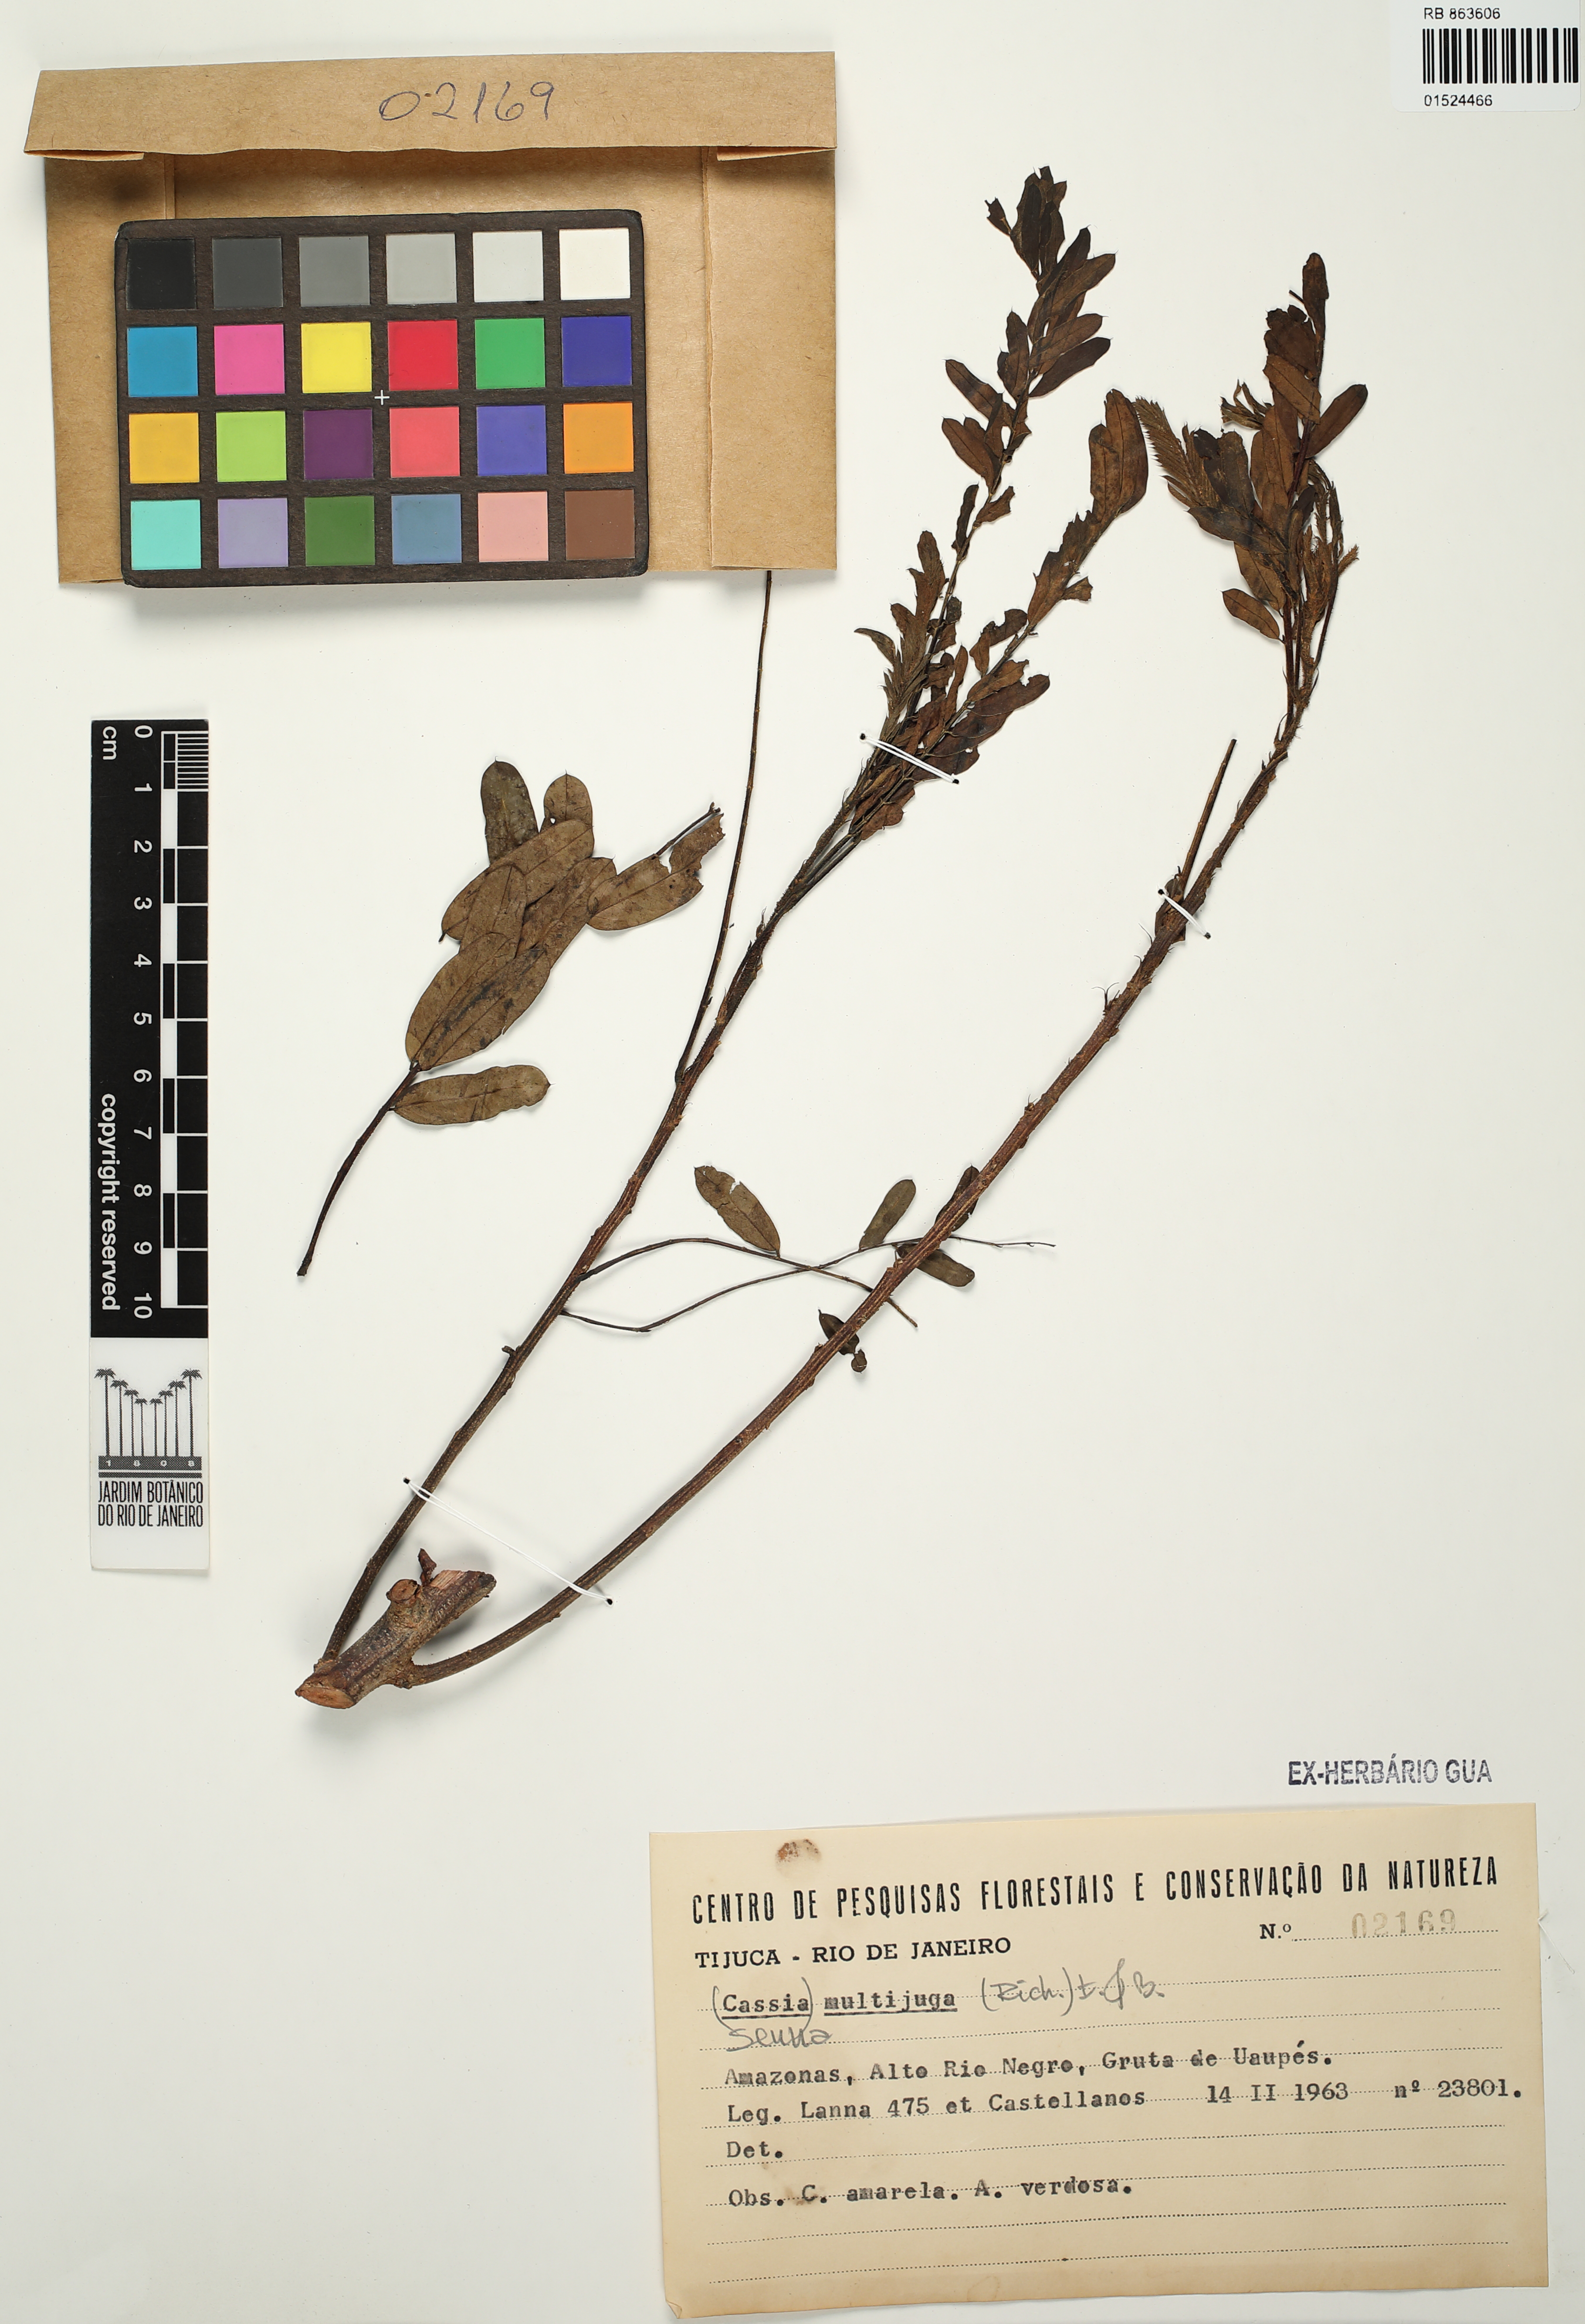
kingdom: Plantae
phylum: Tracheophyta
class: Magnoliopsida
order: Fabales
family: Fabaceae
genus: Senna
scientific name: Senna multijuga
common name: False sicklepod
